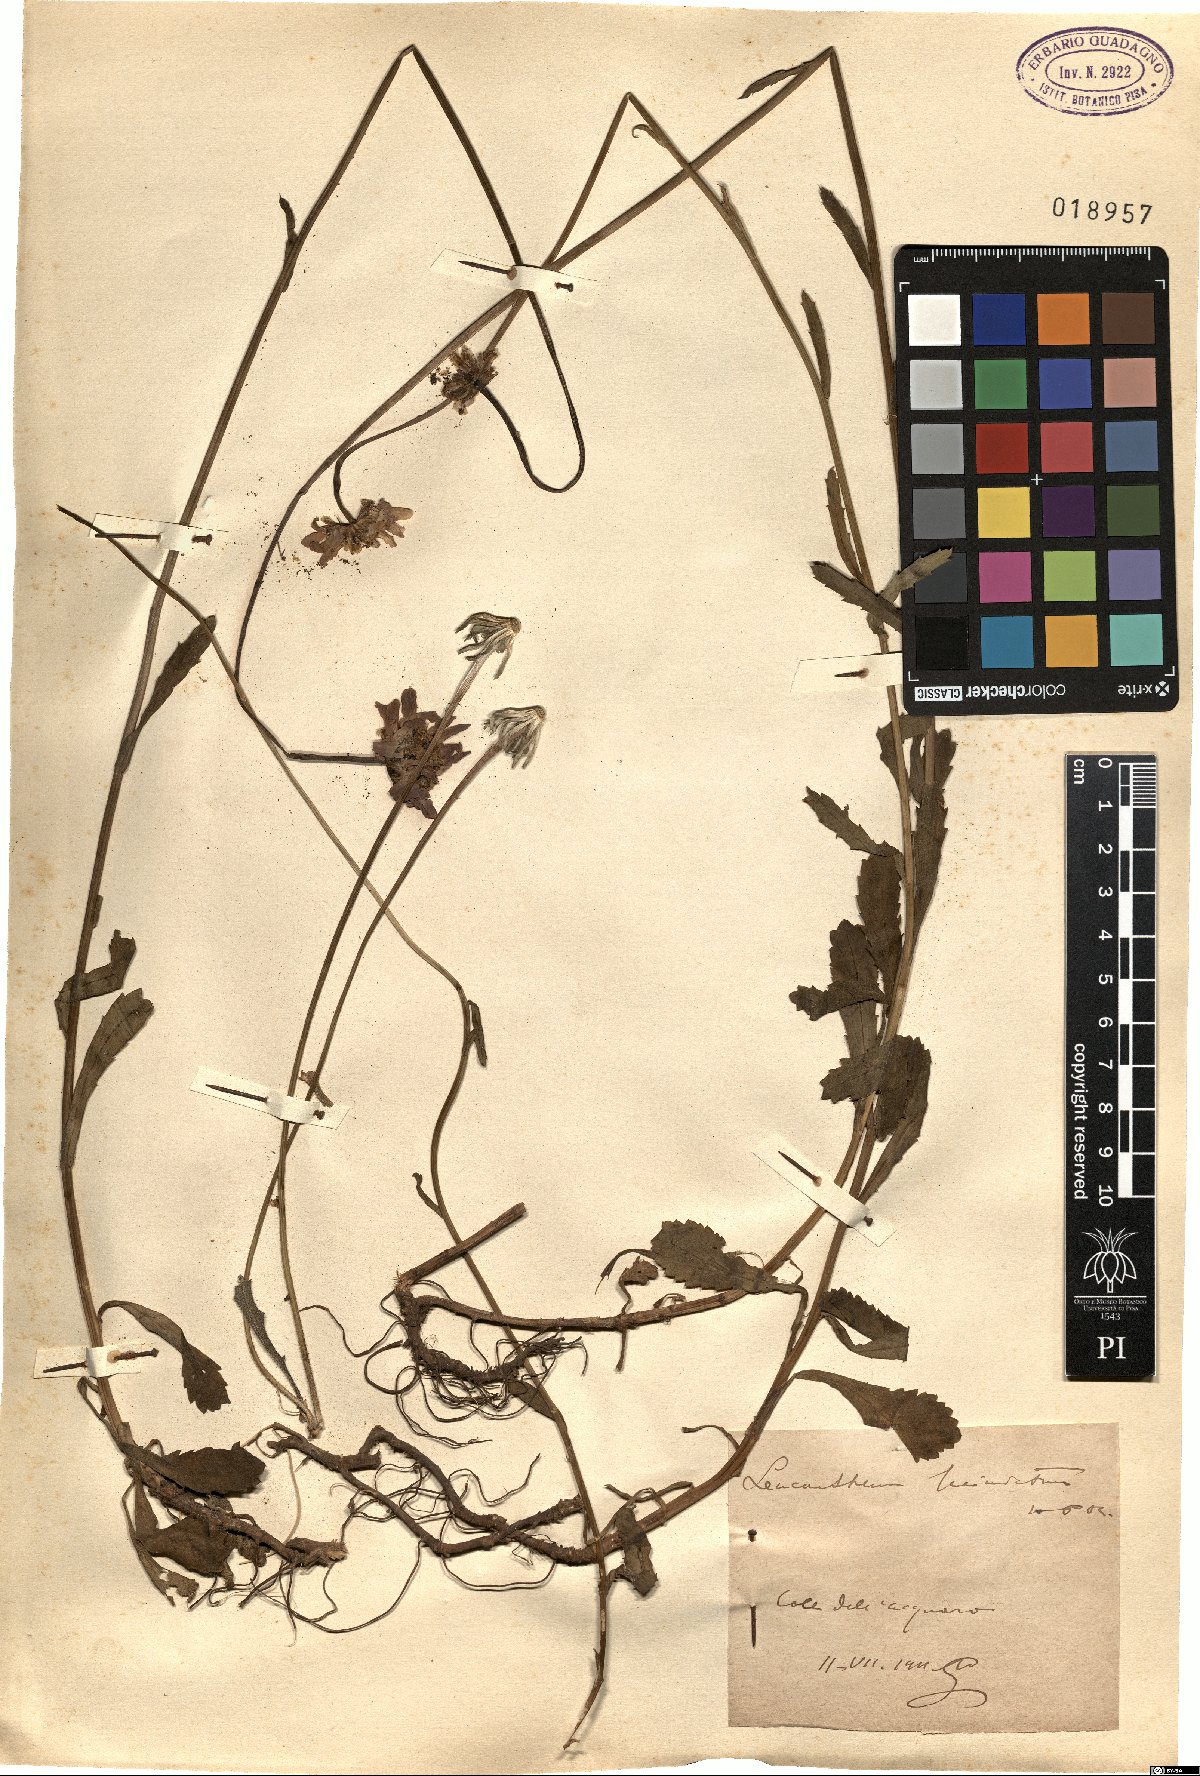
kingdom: Plantae
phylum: Tracheophyta
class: Magnoliopsida
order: Asterales
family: Asteraceae
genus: Leucanthemum
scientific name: Leucanthemum laciniatum
